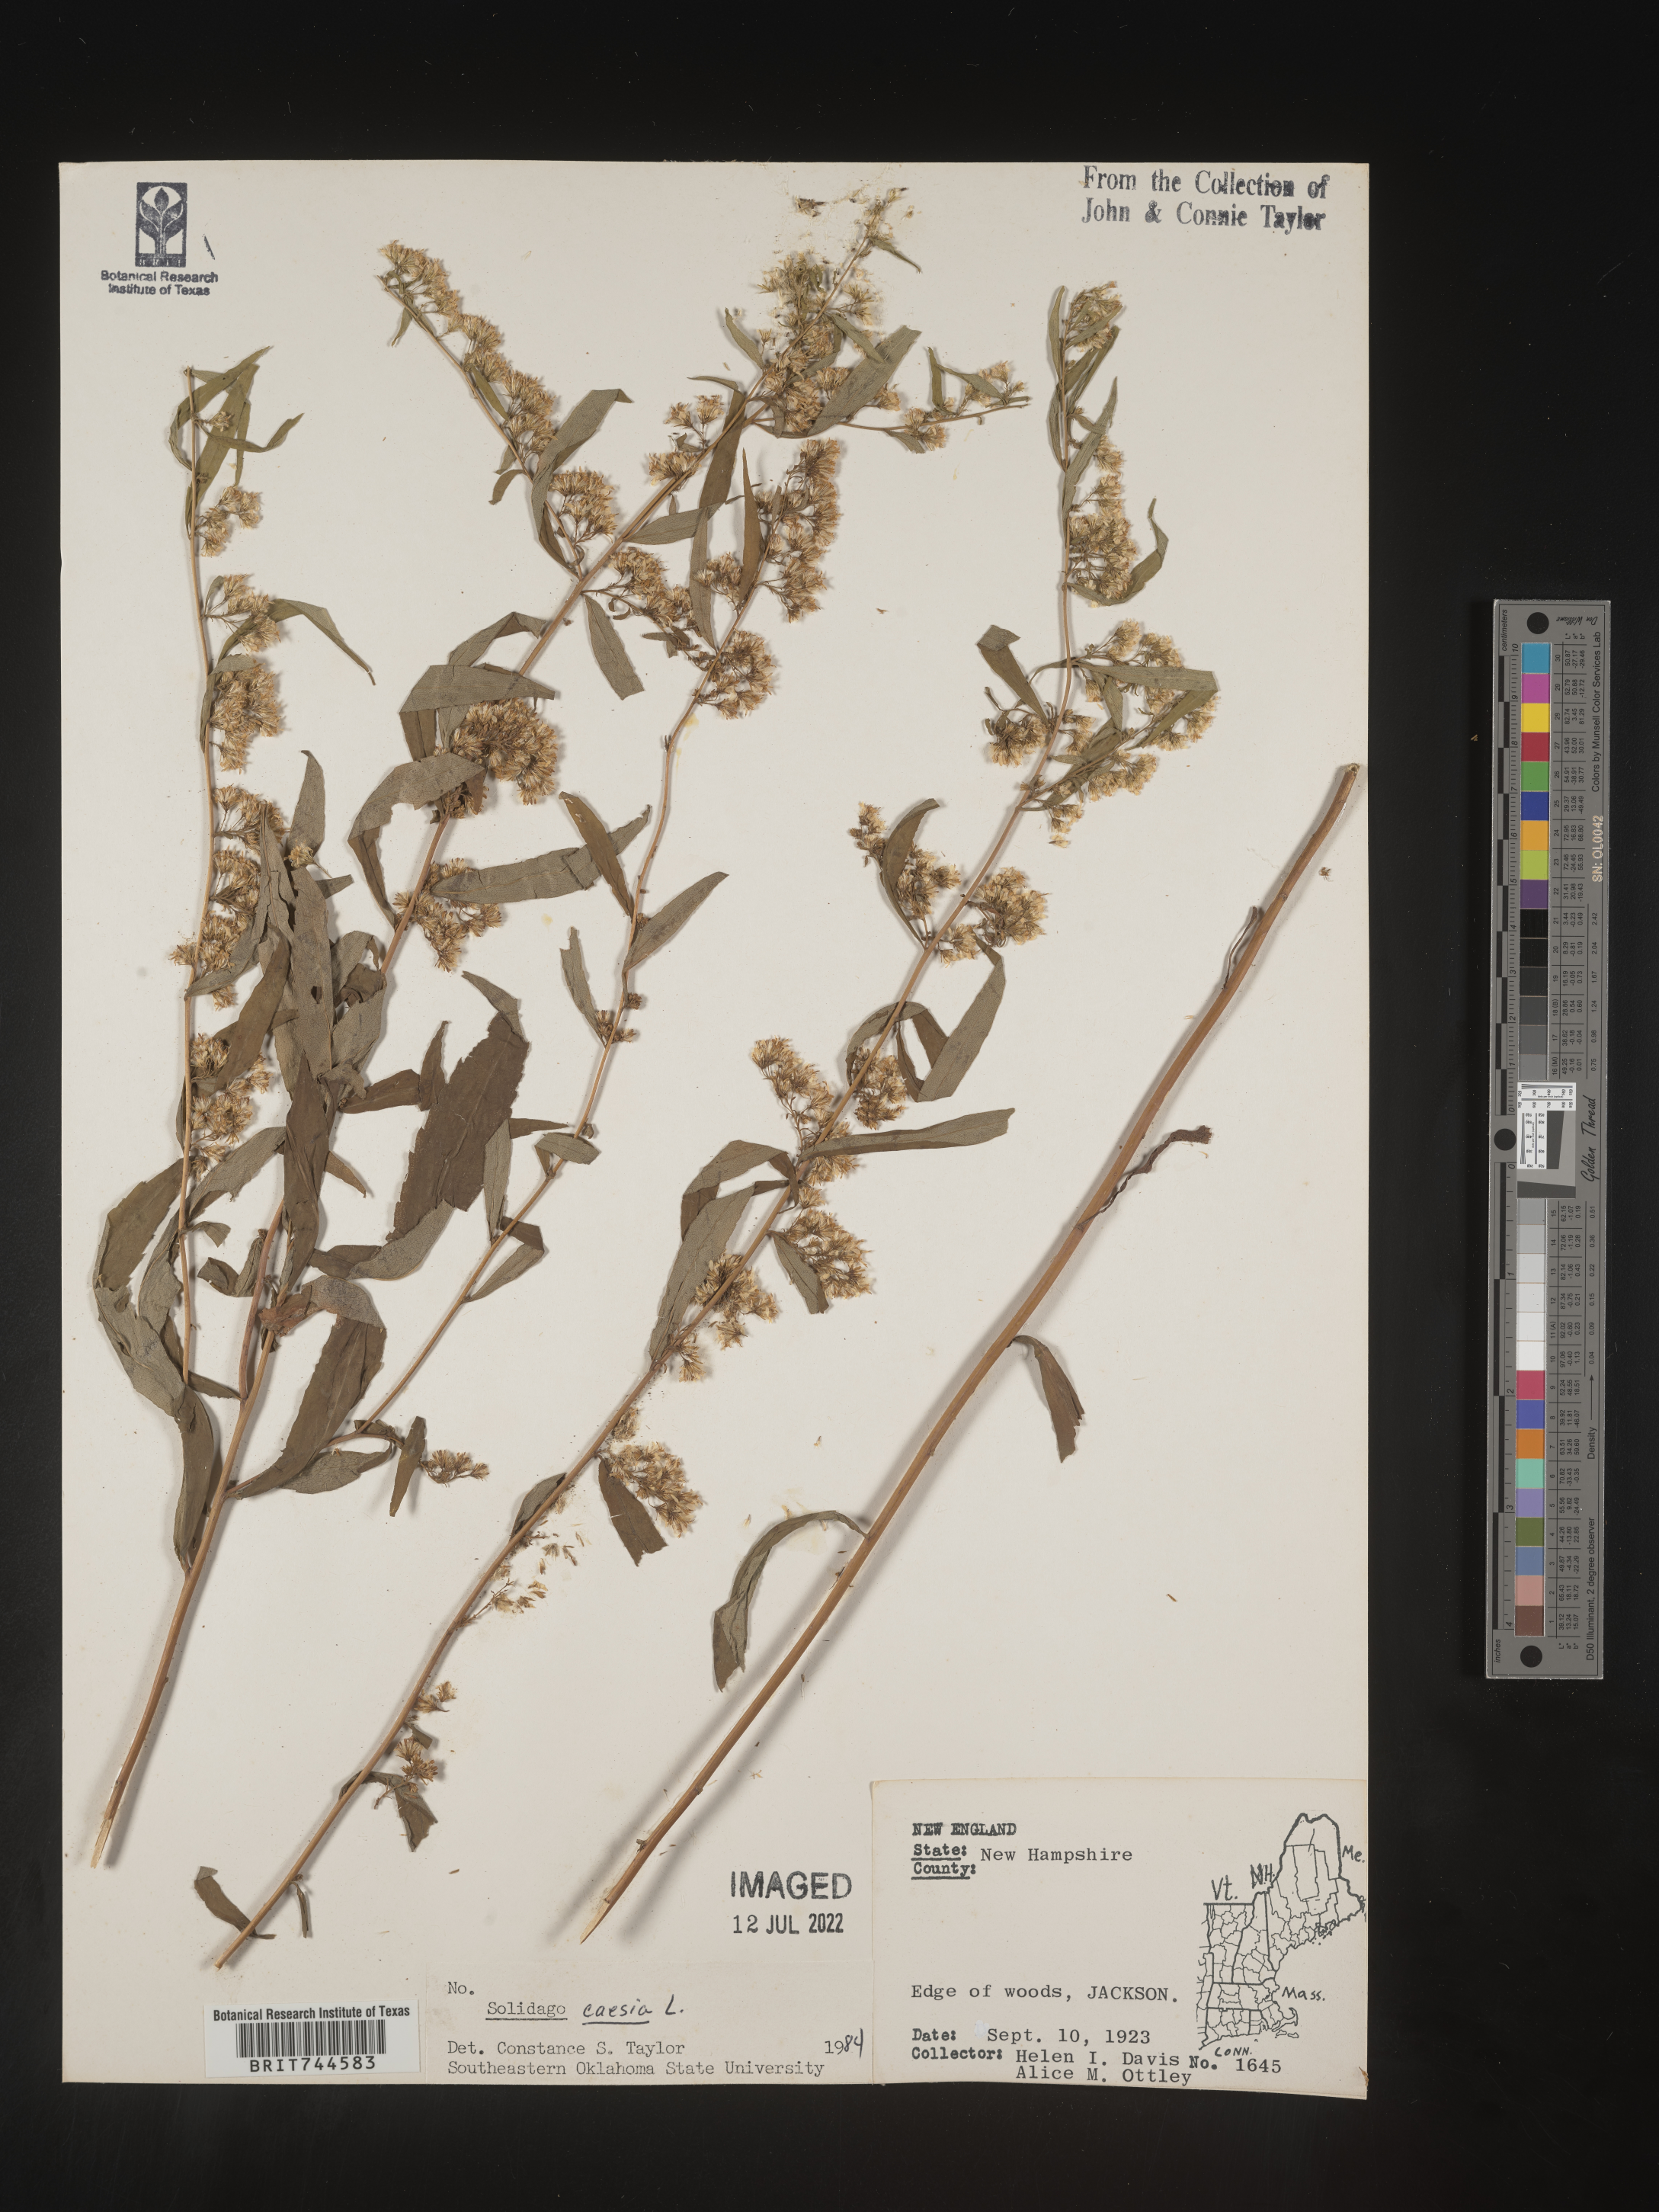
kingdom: Plantae
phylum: Tracheophyta
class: Magnoliopsida
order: Asterales
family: Asteraceae
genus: Solidago
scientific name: Solidago caesia
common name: Woodland goldenrod
